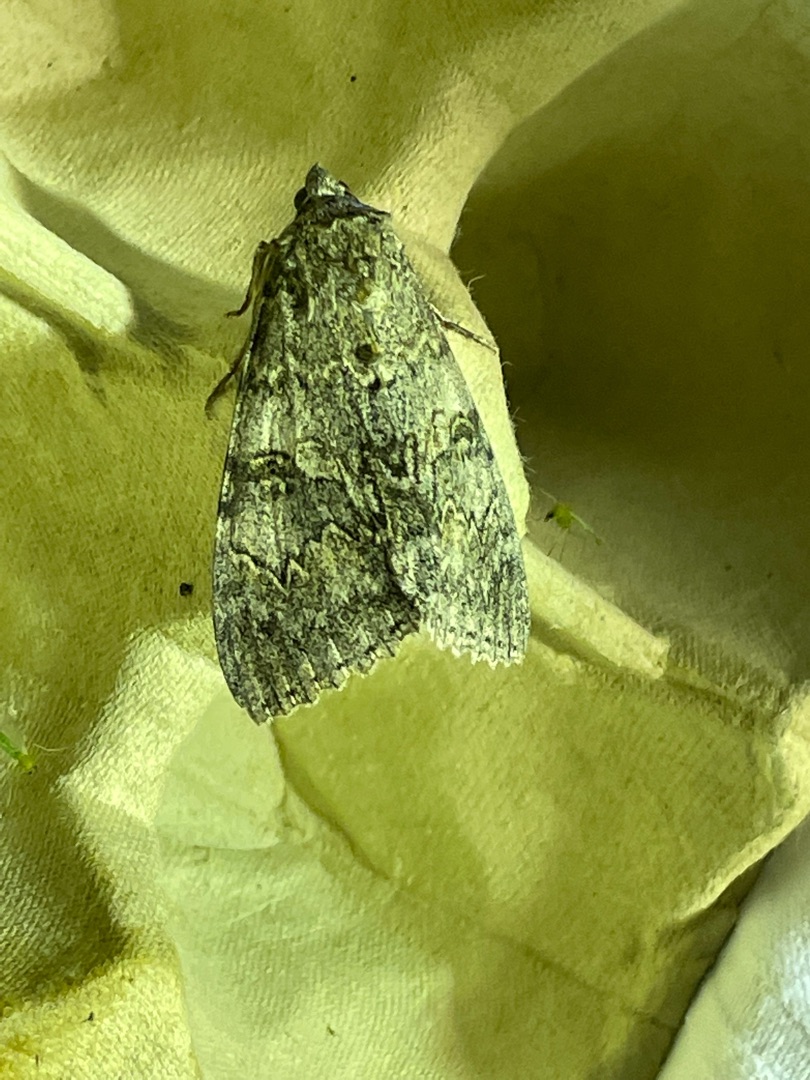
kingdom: Animalia
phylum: Arthropoda
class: Insecta
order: Lepidoptera
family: Erebidae
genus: Catocala
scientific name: Catocala nupta
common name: Rødt ordensbånd
